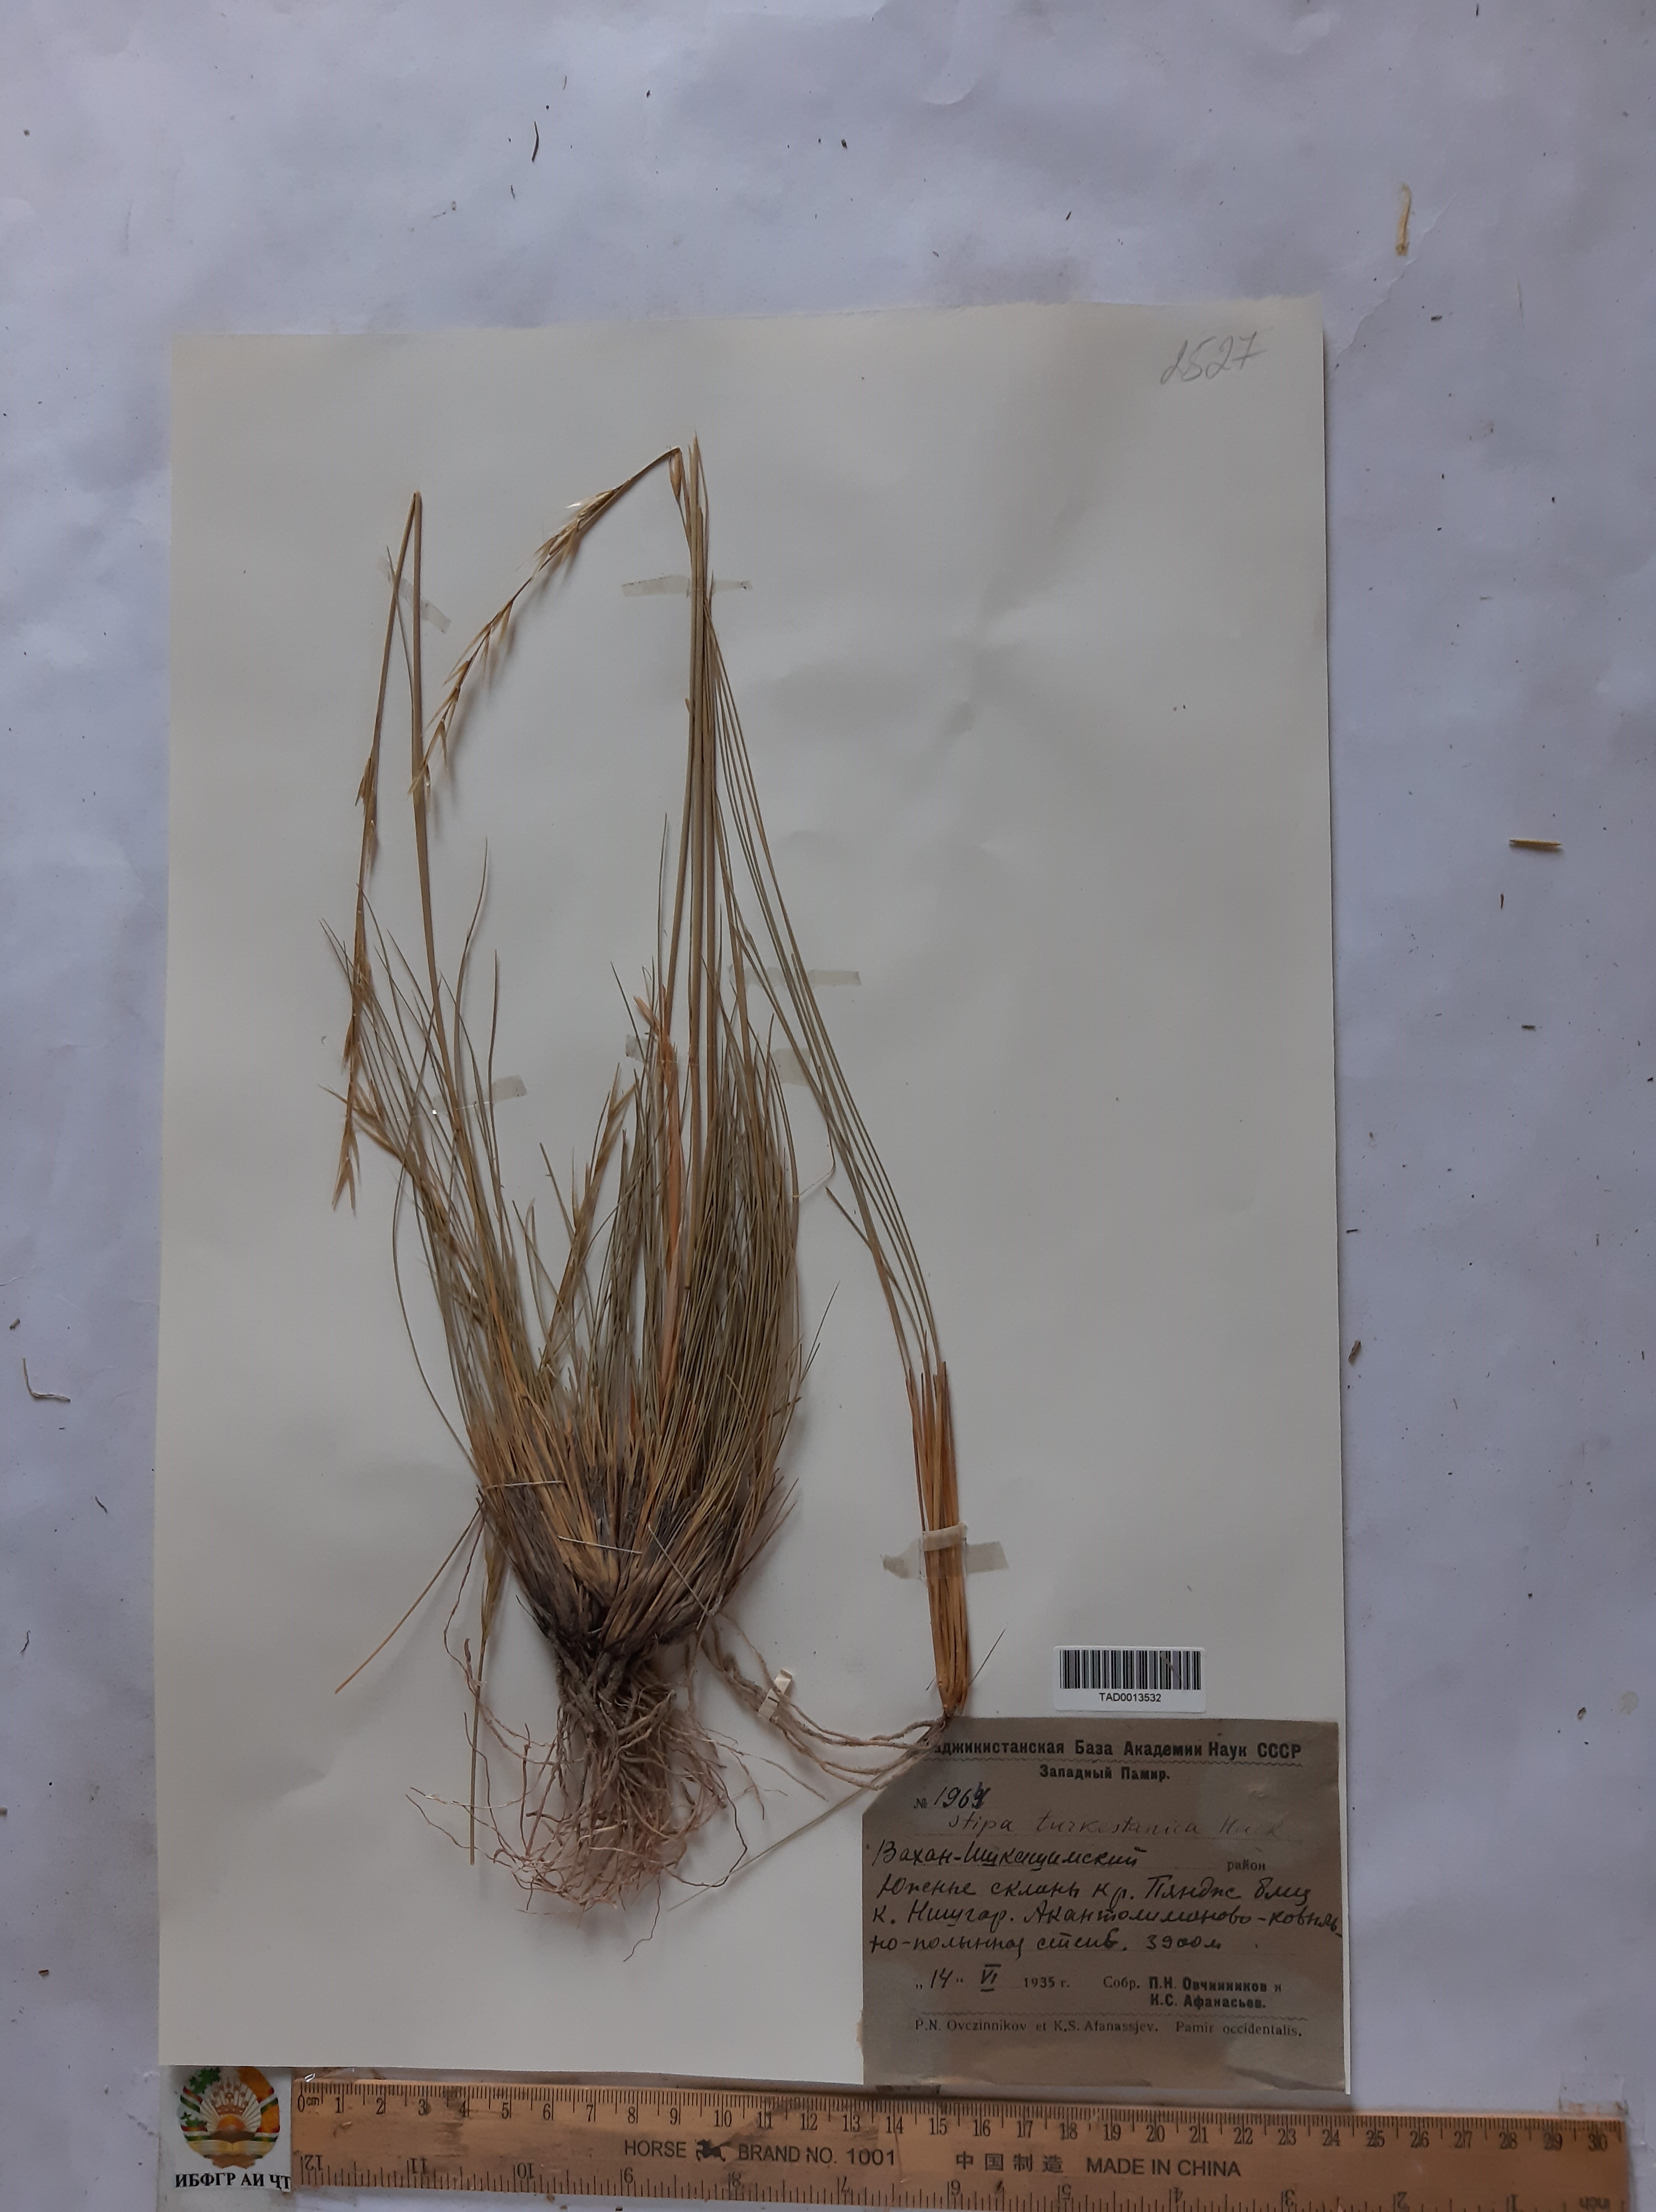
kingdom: Plantae
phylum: Tracheophyta
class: Liliopsida
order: Poales
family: Poaceae
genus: Stipa
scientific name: Stipa turkestanica
